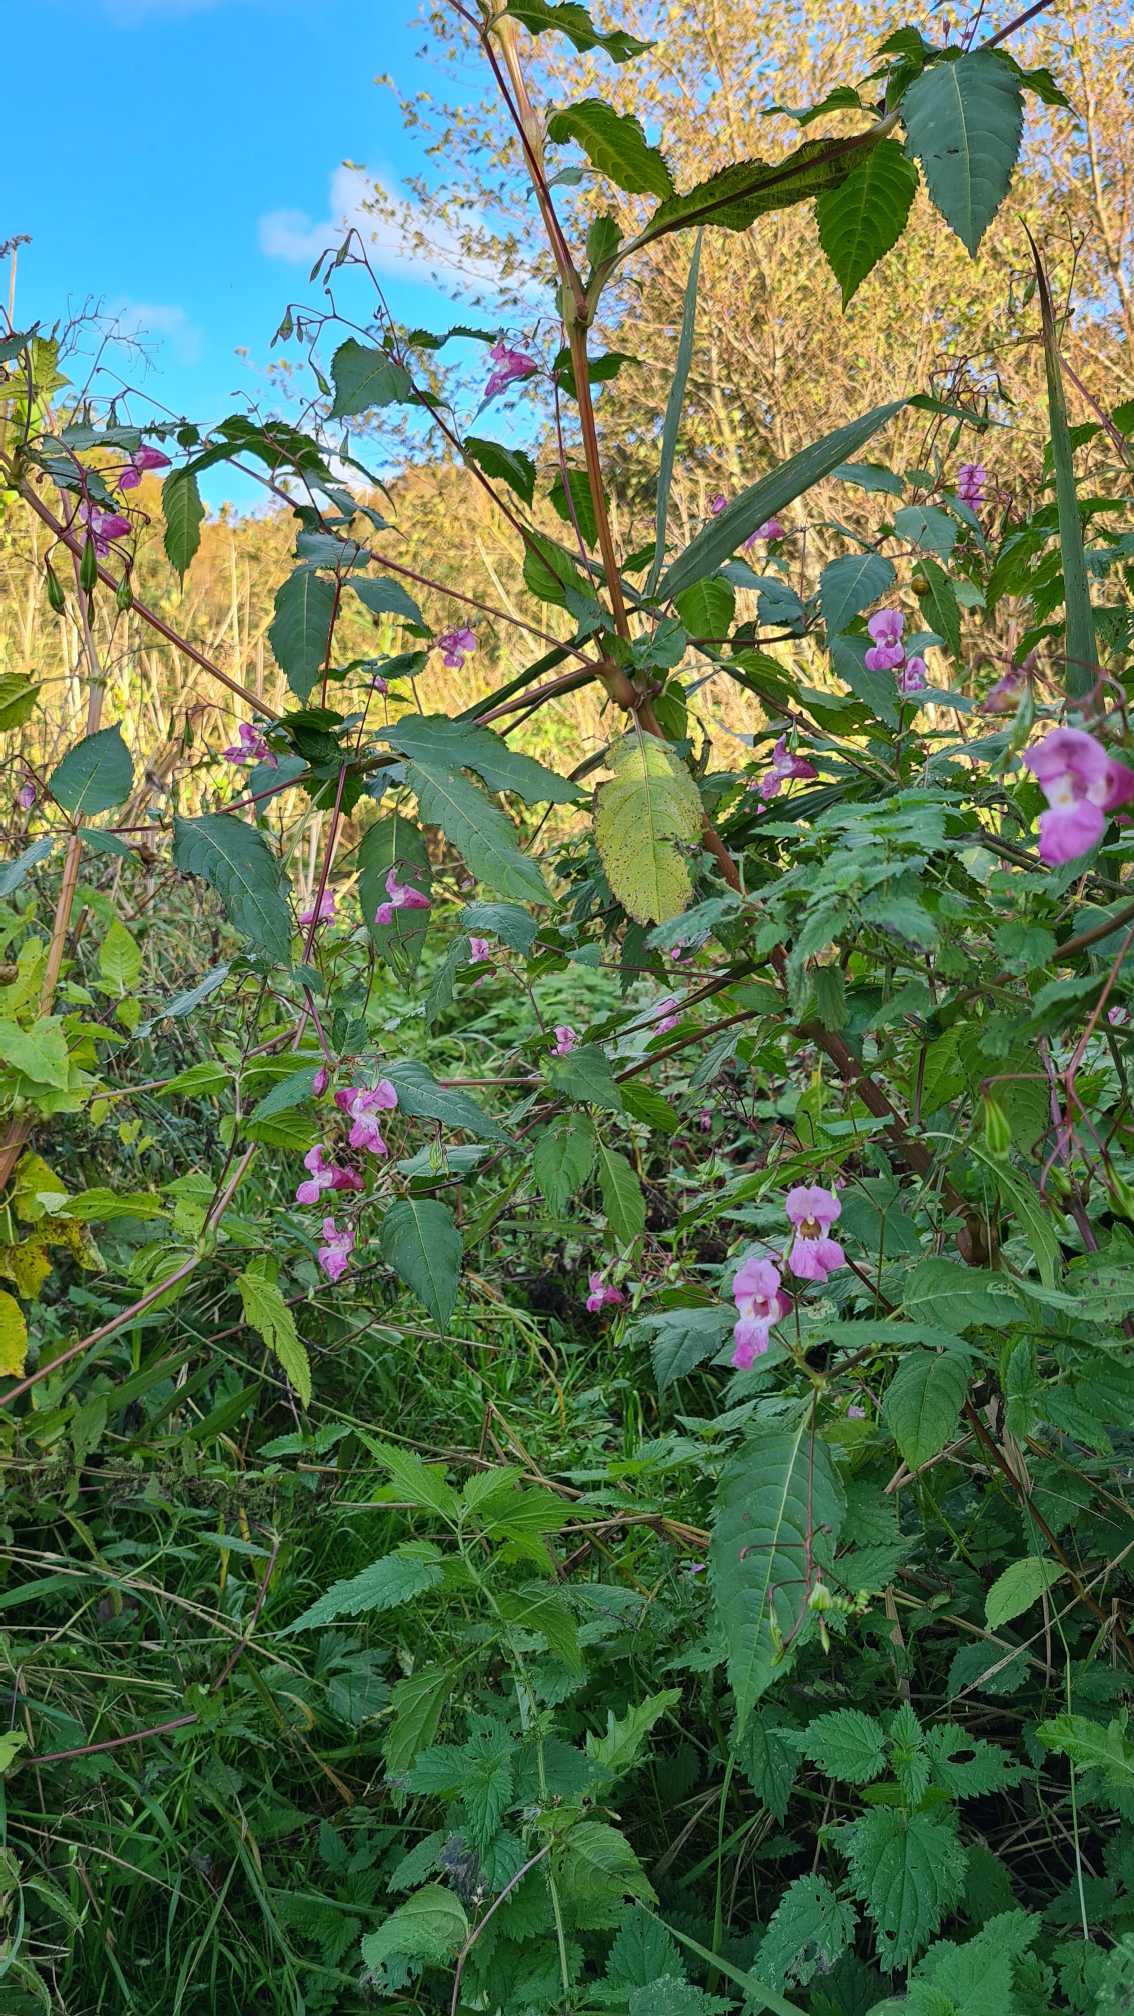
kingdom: Plantae
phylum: Tracheophyta
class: Magnoliopsida
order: Ericales
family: Balsaminaceae
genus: Impatiens
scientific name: Impatiens glandulifera
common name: Kæmpe-balsamin
